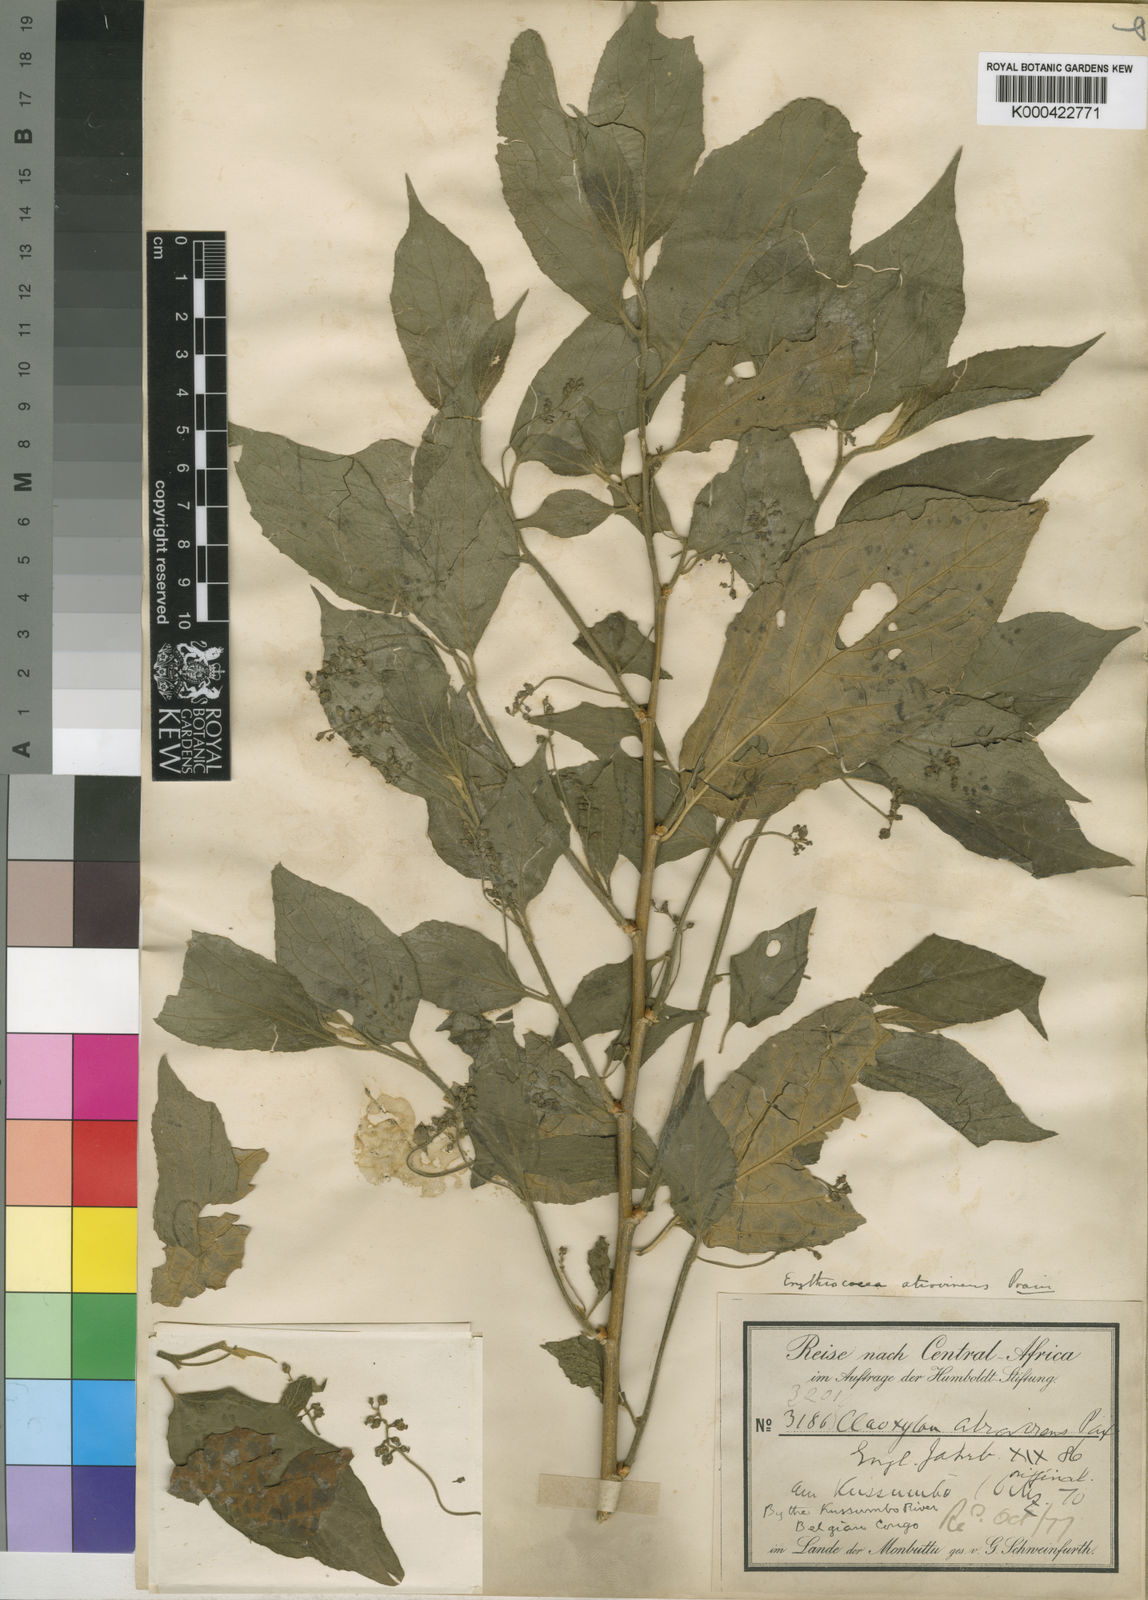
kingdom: Plantae
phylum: Tracheophyta
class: Magnoliopsida
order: Malpighiales
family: Euphorbiaceae
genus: Erythrococca
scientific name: Erythrococca atrovirens
